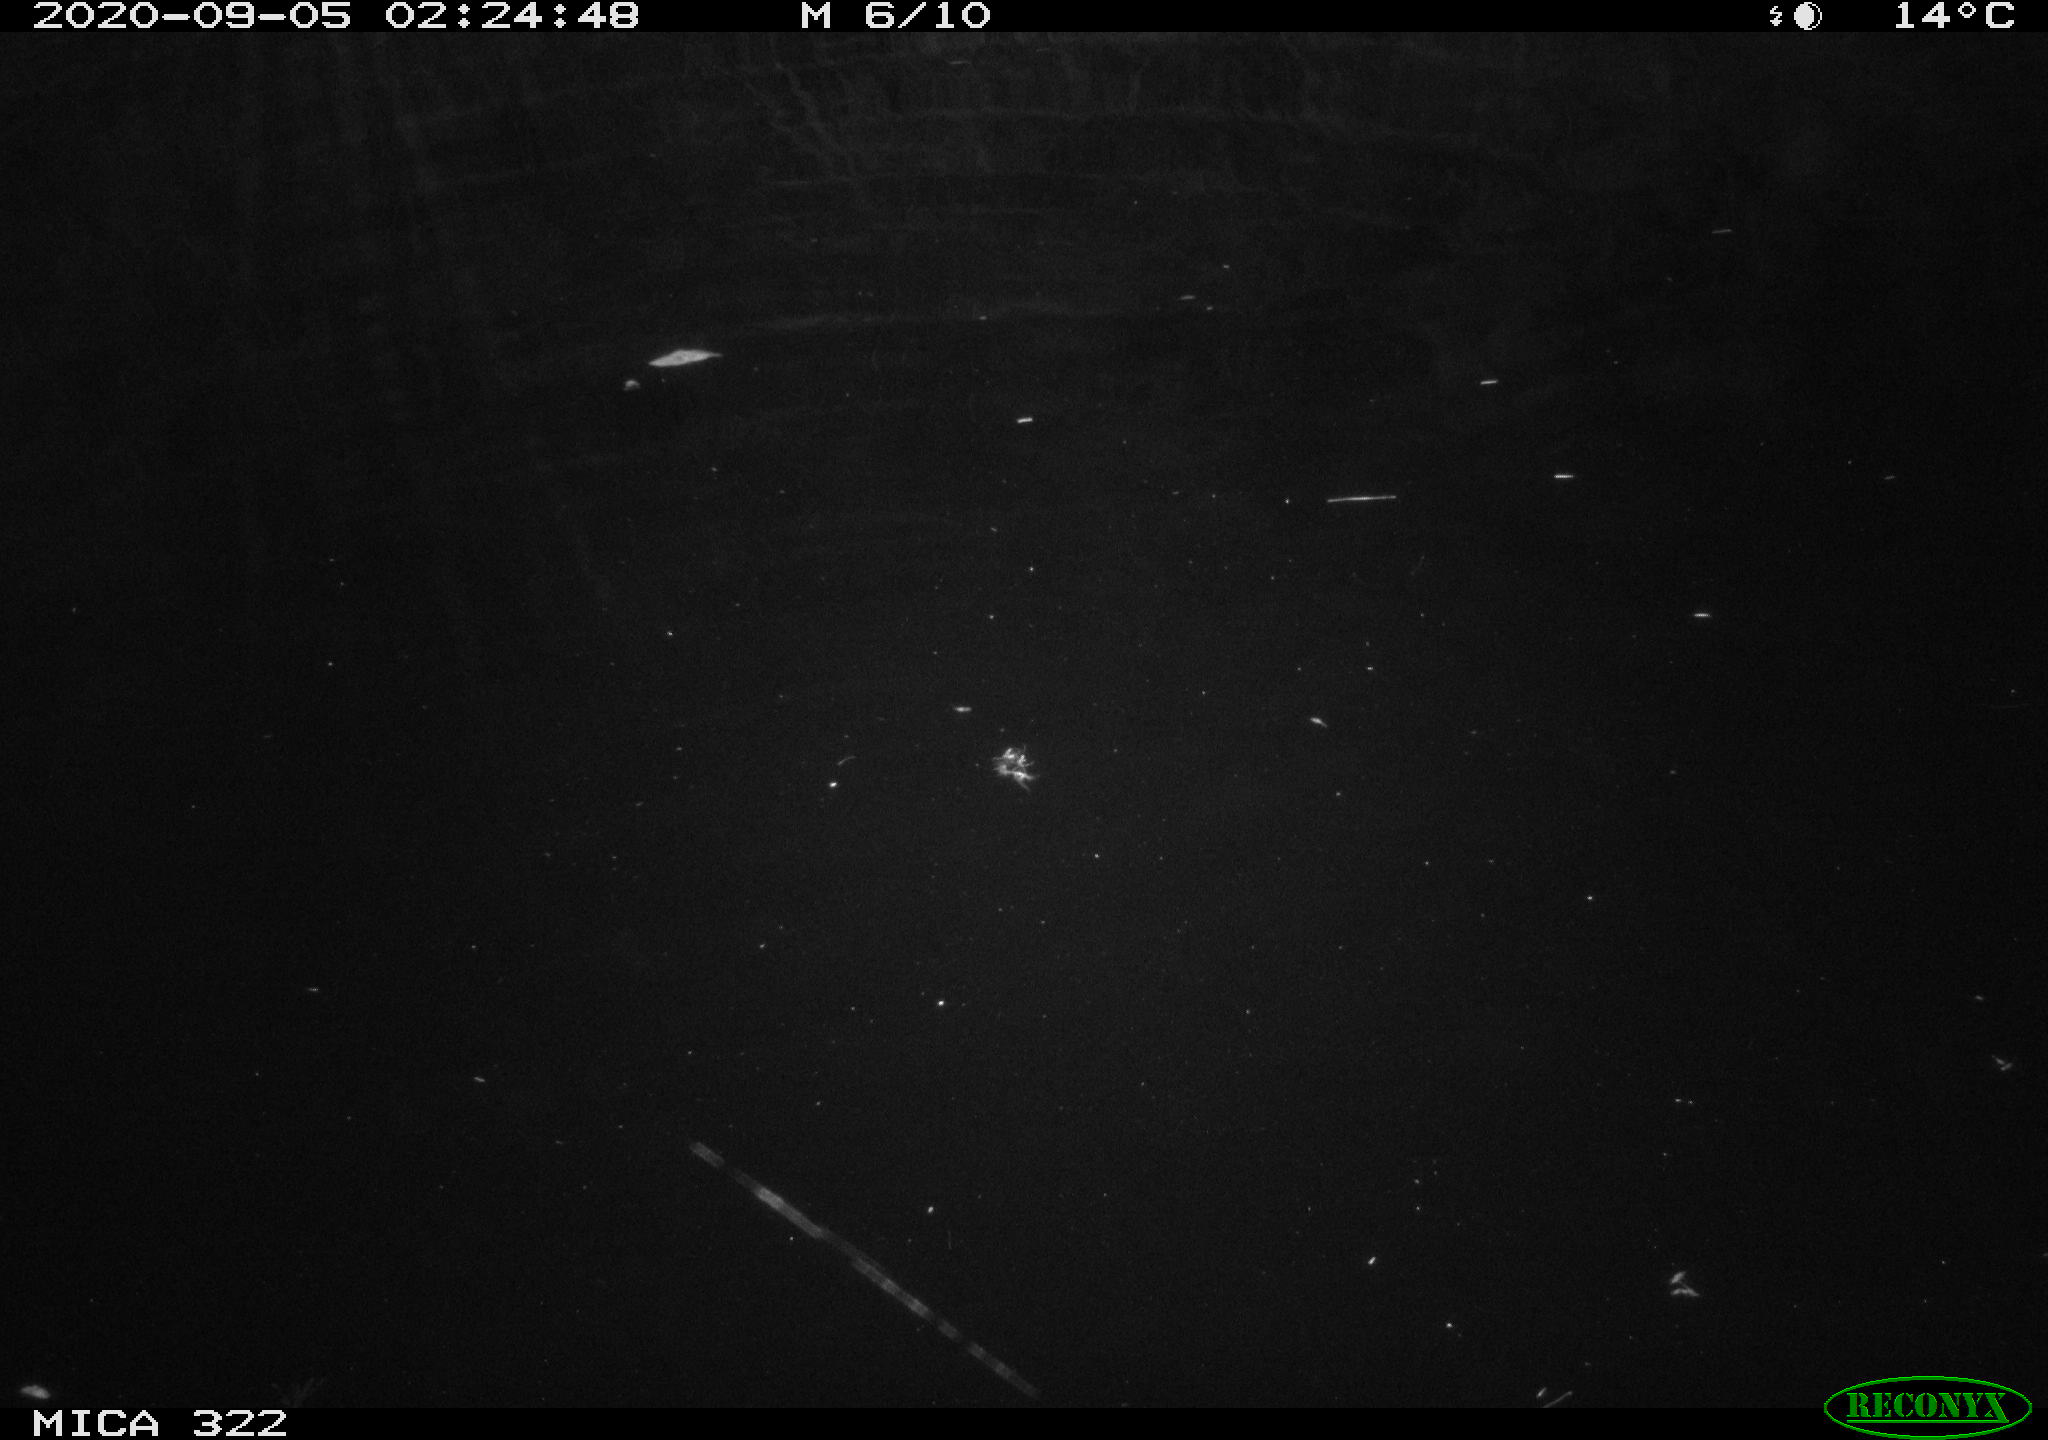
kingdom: Animalia
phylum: Chordata
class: Mammalia
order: Rodentia
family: Muridae
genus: Rattus
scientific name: Rattus norvegicus
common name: Brown rat
